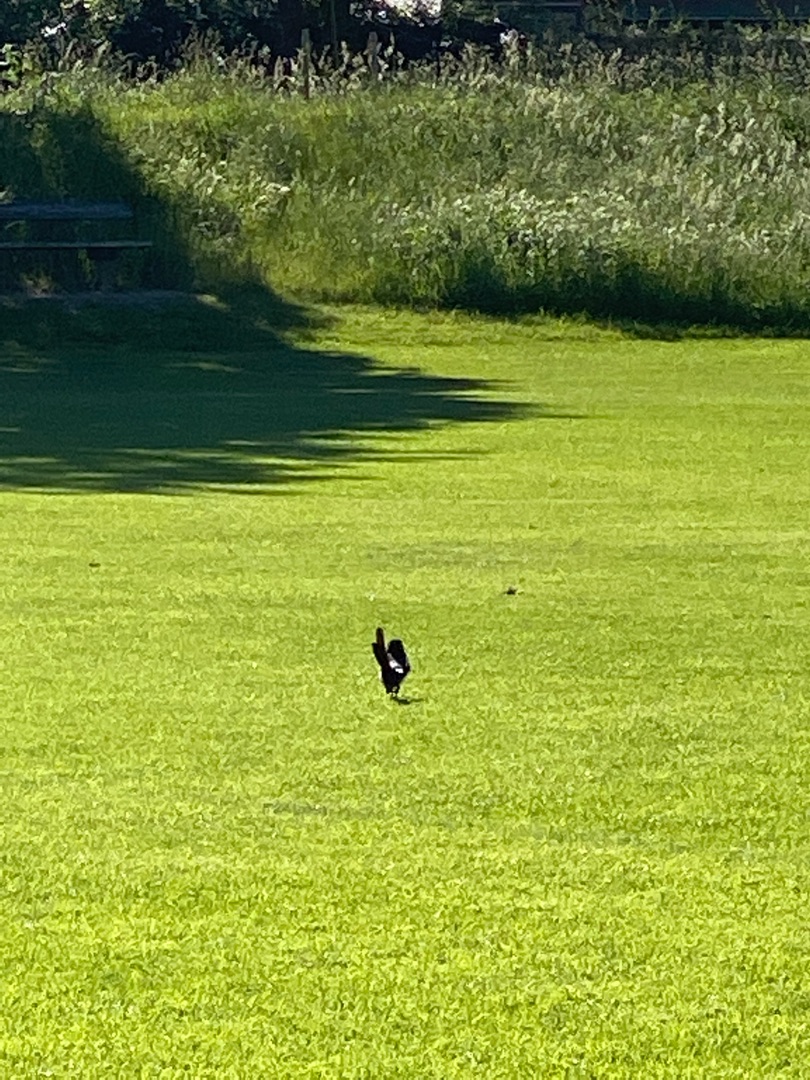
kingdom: Animalia
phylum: Chordata
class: Aves
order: Passeriformes
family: Corvidae
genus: Pica
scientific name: Pica pica
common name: Husskade
